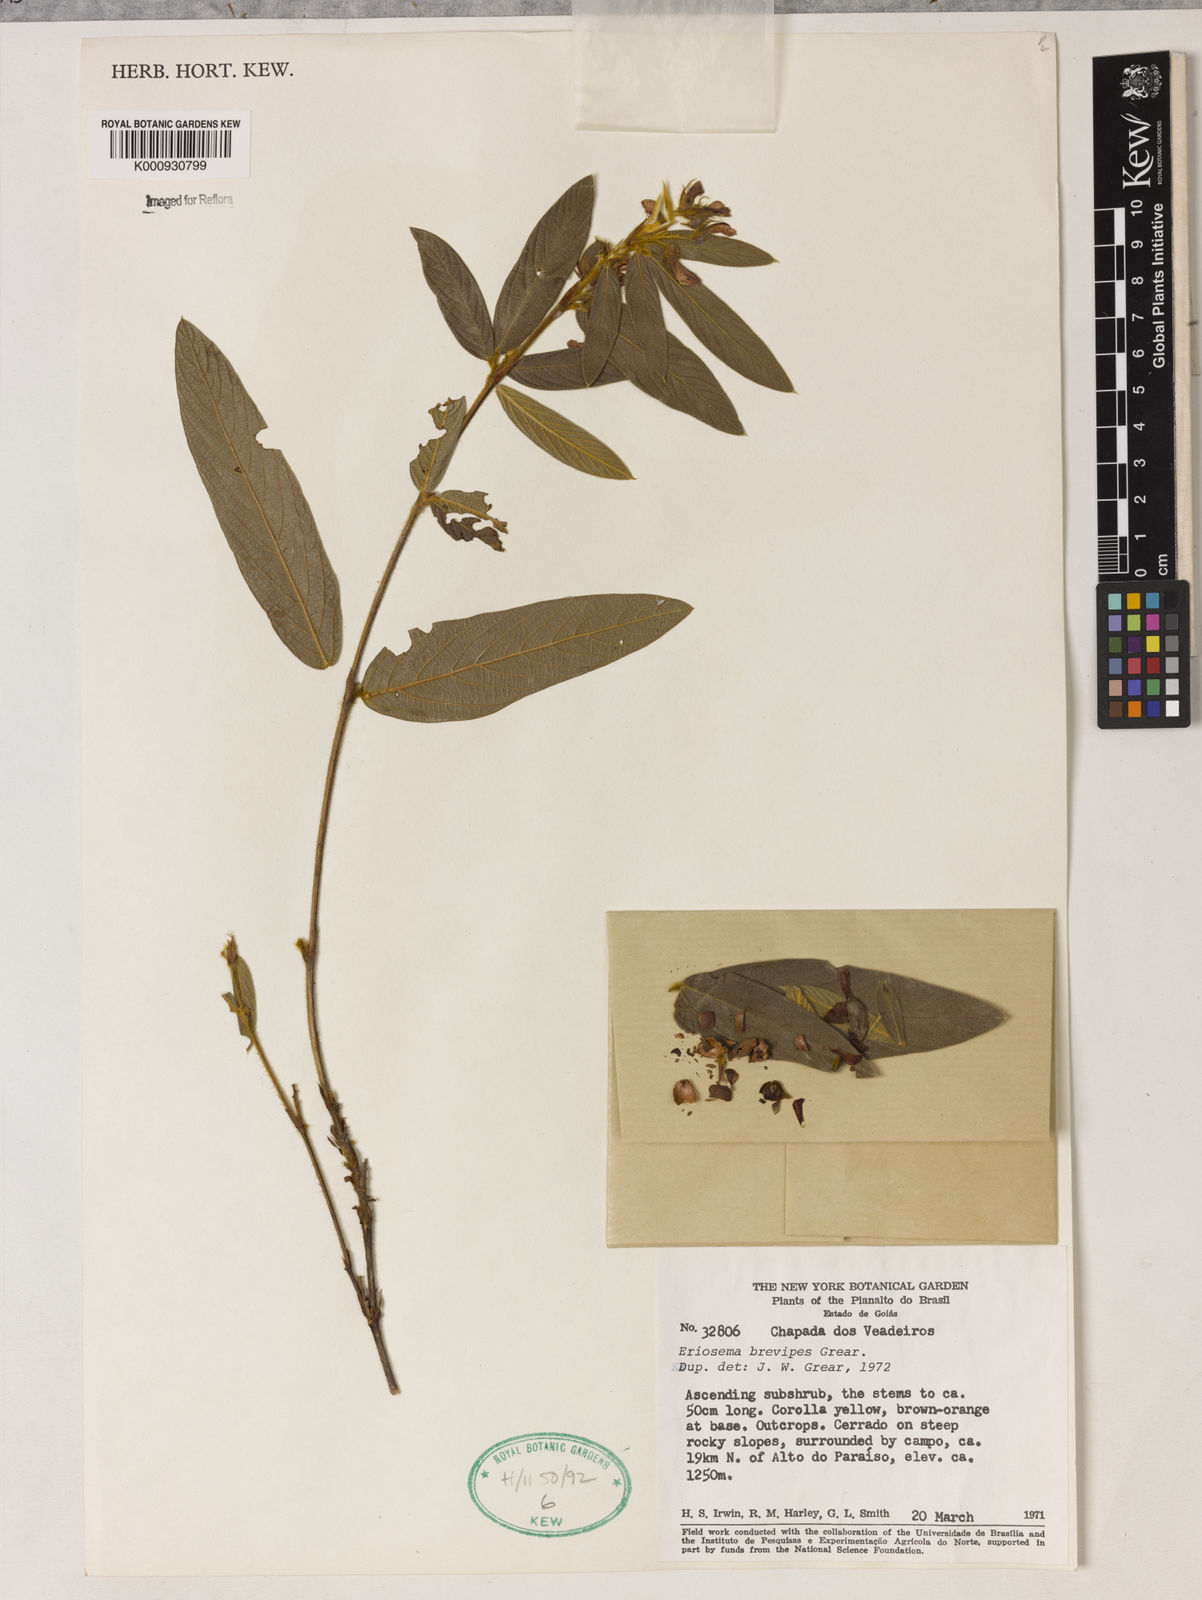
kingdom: Plantae
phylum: Tracheophyta
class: Magnoliopsida
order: Fabales
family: Fabaceae
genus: Eriosema
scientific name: Eriosema brevipes
